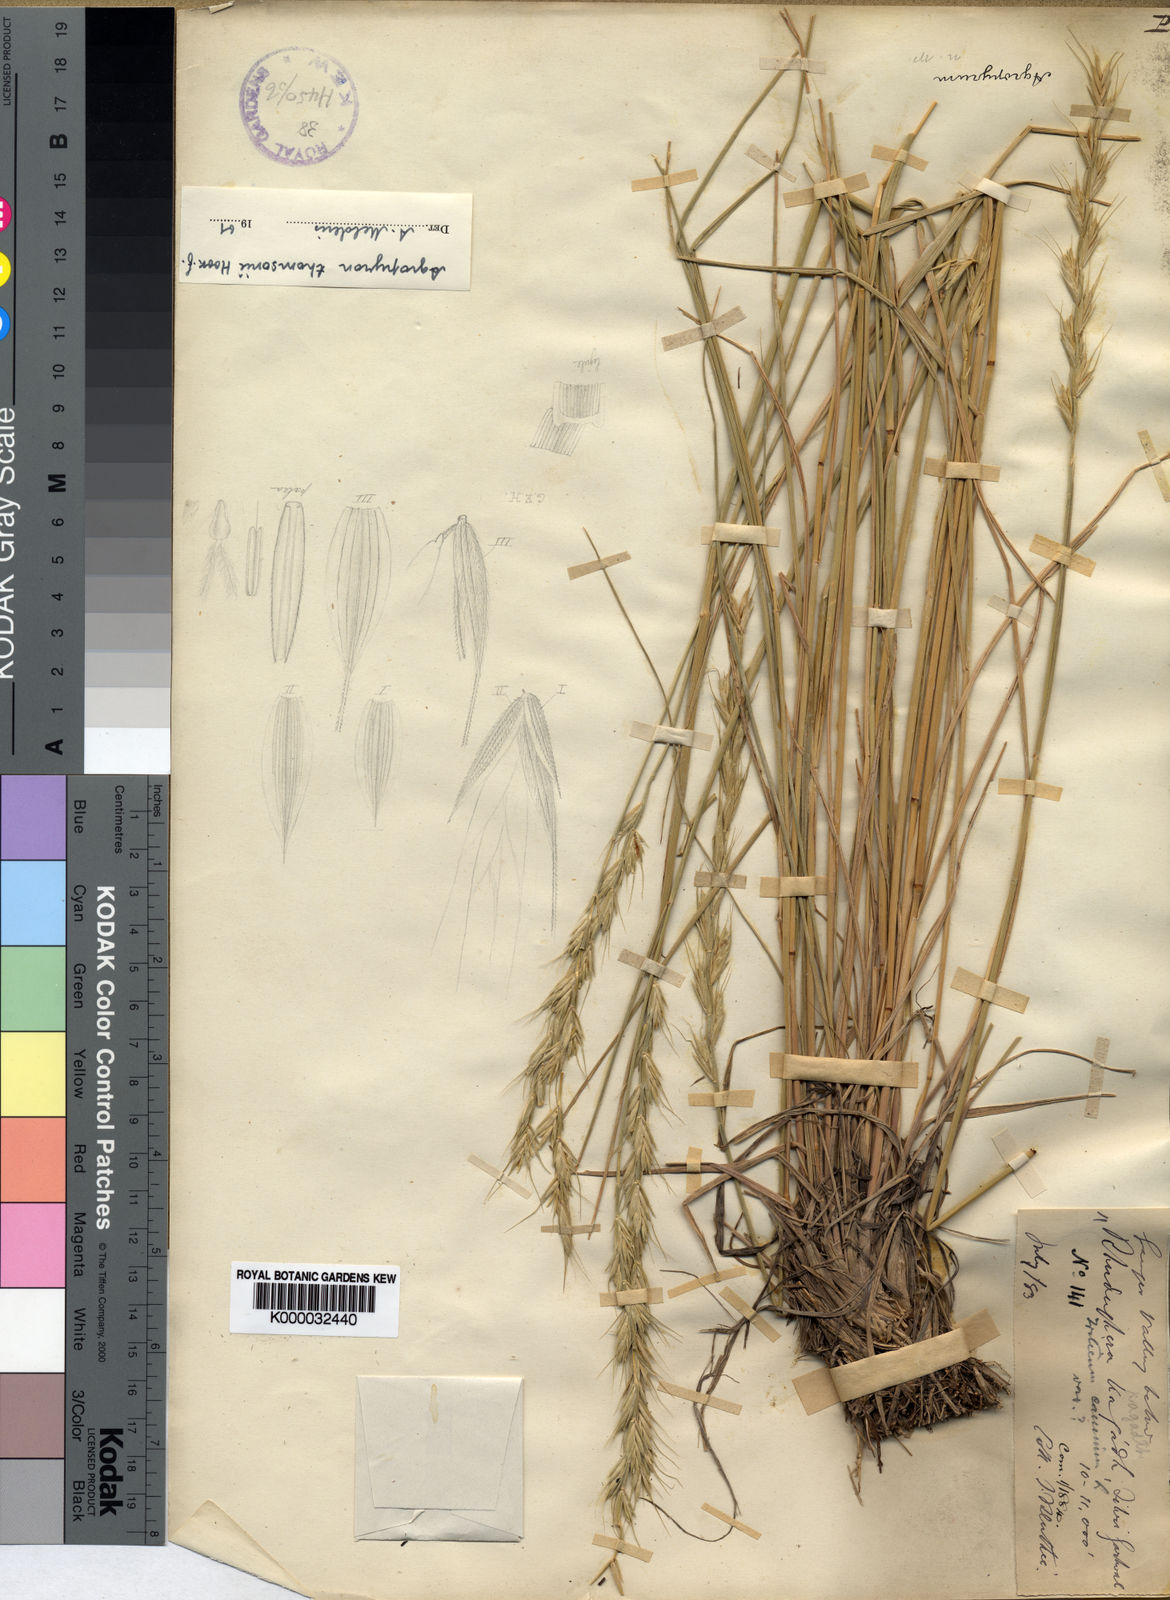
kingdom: Plantae
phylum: Tracheophyta
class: Liliopsida
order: Poales
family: Poaceae
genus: Agropyron
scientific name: Agropyron thomsonii
